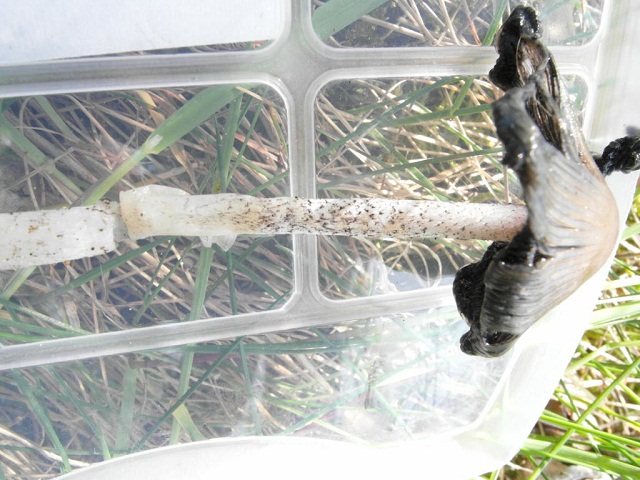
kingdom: Fungi
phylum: Basidiomycota
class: Agaricomycetes
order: Agaricales
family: Psathyrellaceae
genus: Coprinopsis
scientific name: Coprinopsis jonesii
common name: spættet blækhat
